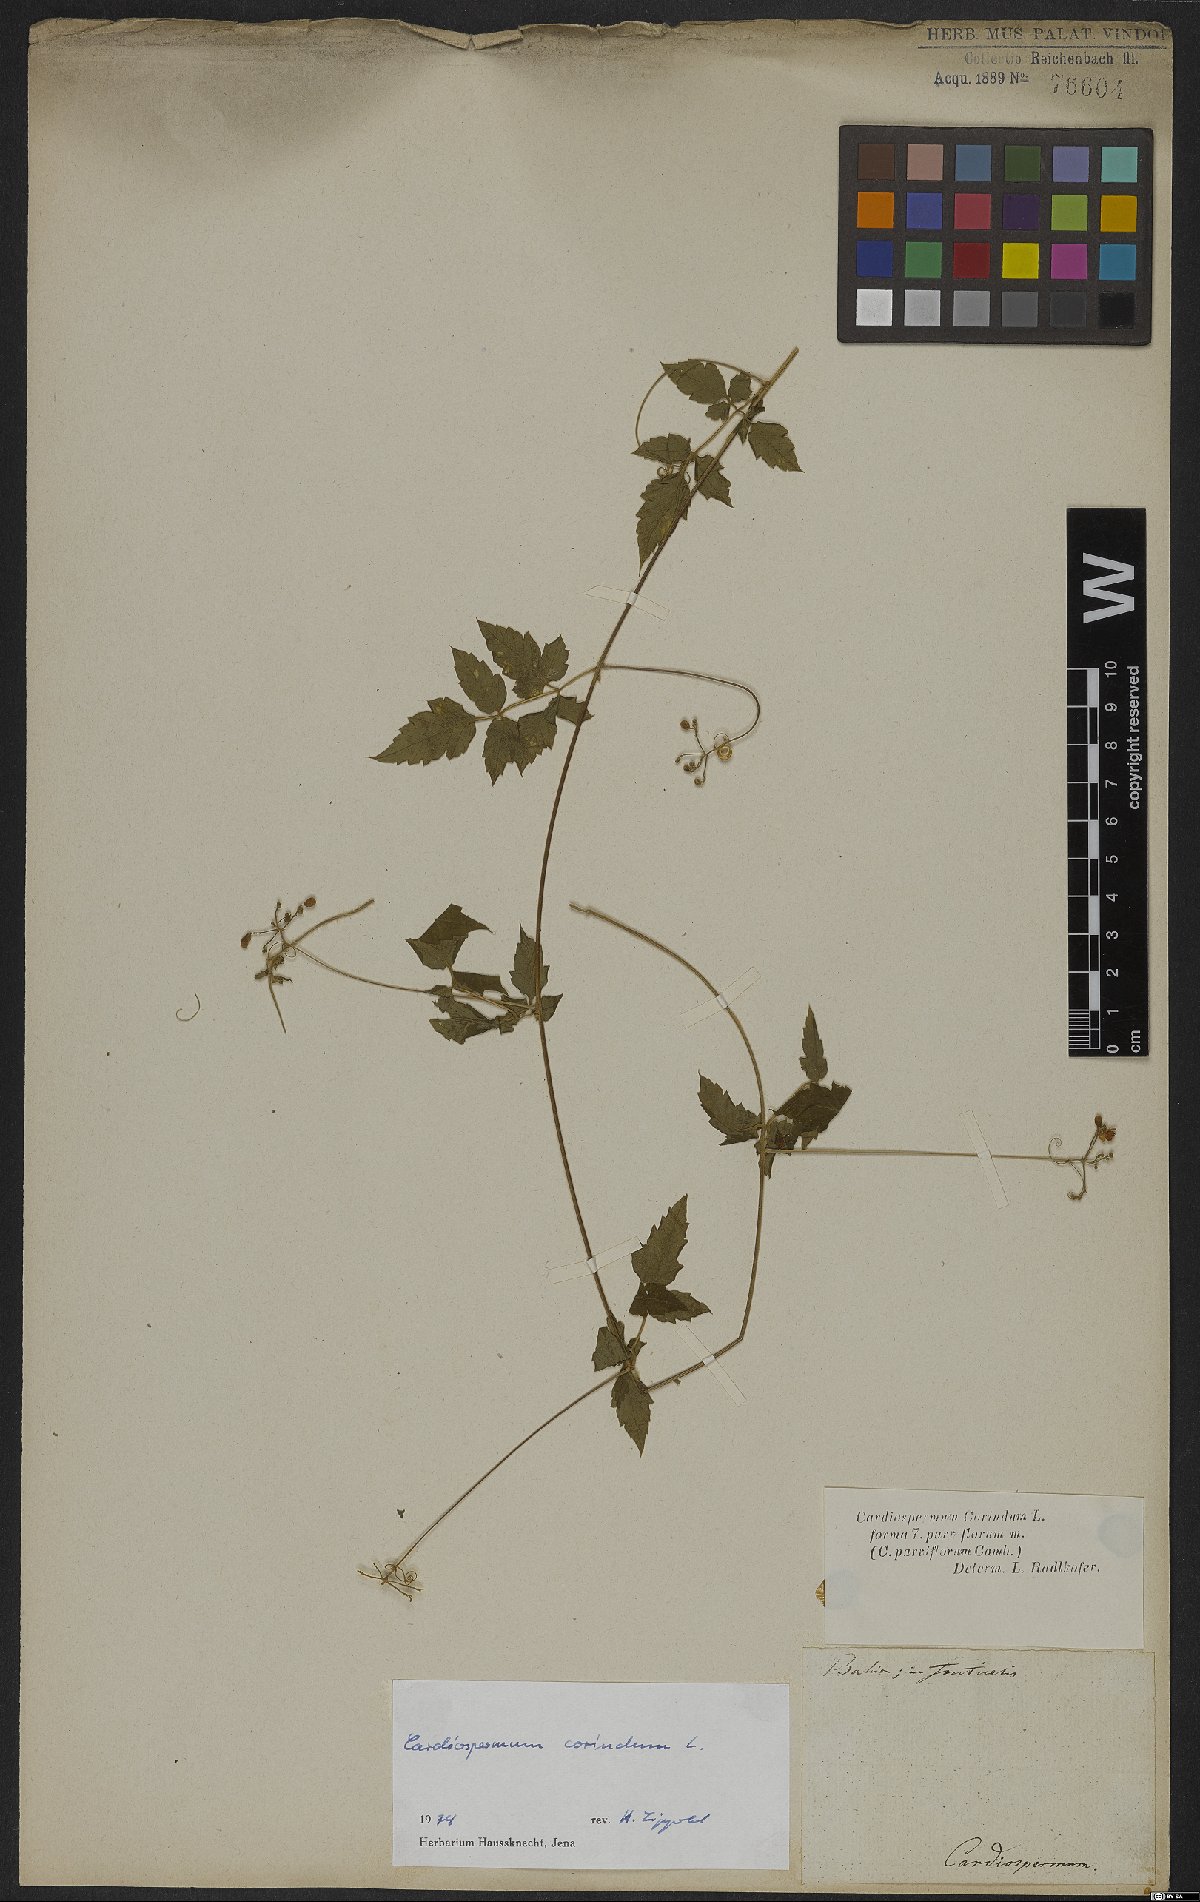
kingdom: Plantae
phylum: Tracheophyta
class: Magnoliopsida
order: Sapindales
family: Sapindaceae
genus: Cardiospermum
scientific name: Cardiospermum corindum
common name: Faux persil
